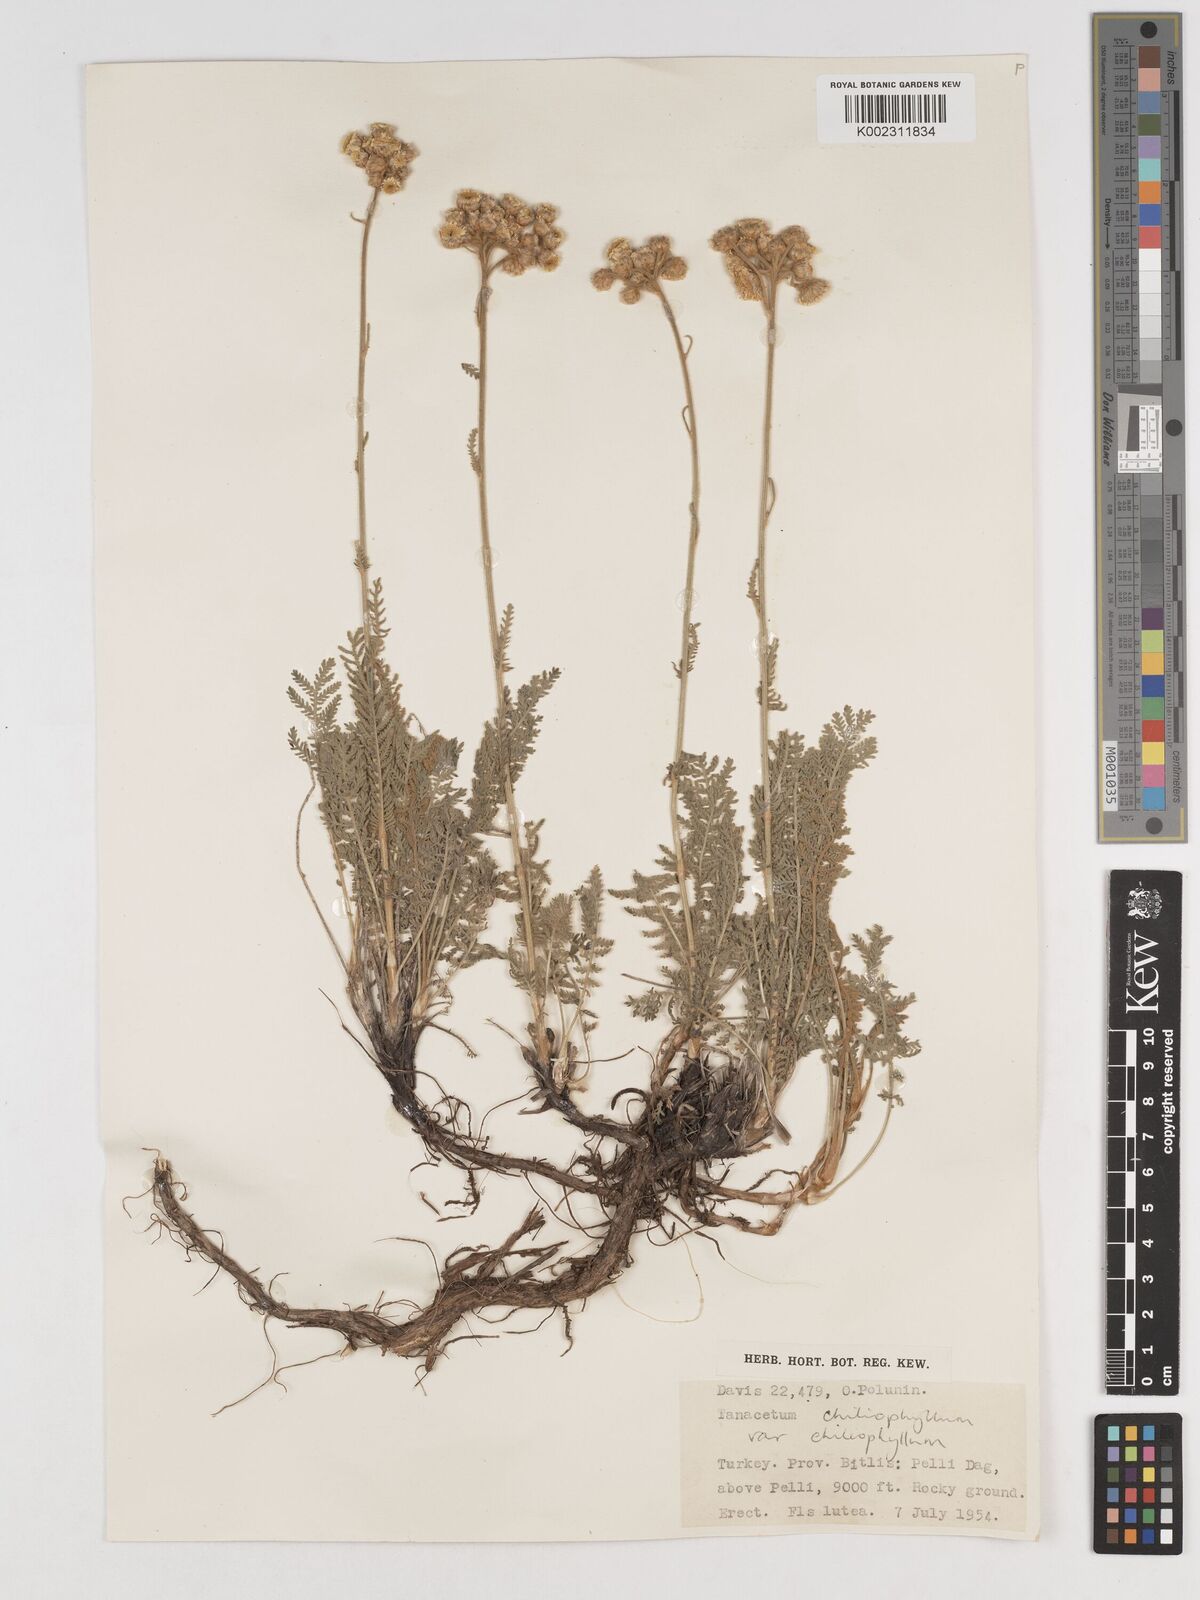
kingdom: Plantae
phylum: Tracheophyta
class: Magnoliopsida
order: Asterales
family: Asteraceae
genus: Tanacetum
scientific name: Tanacetum aureum
